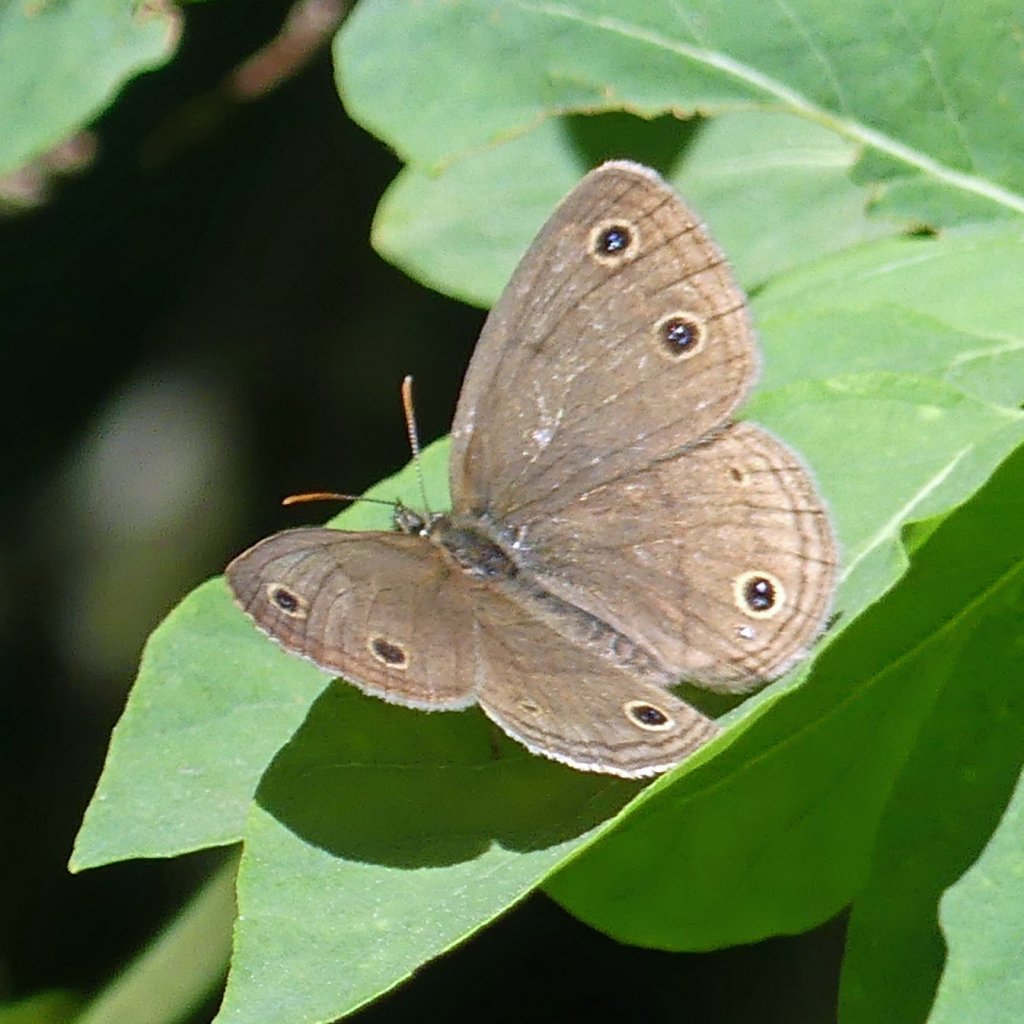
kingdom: Animalia
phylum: Arthropoda
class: Insecta
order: Lepidoptera
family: Nymphalidae
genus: Euptychia
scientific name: Euptychia cymela
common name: Little Wood Satyr
